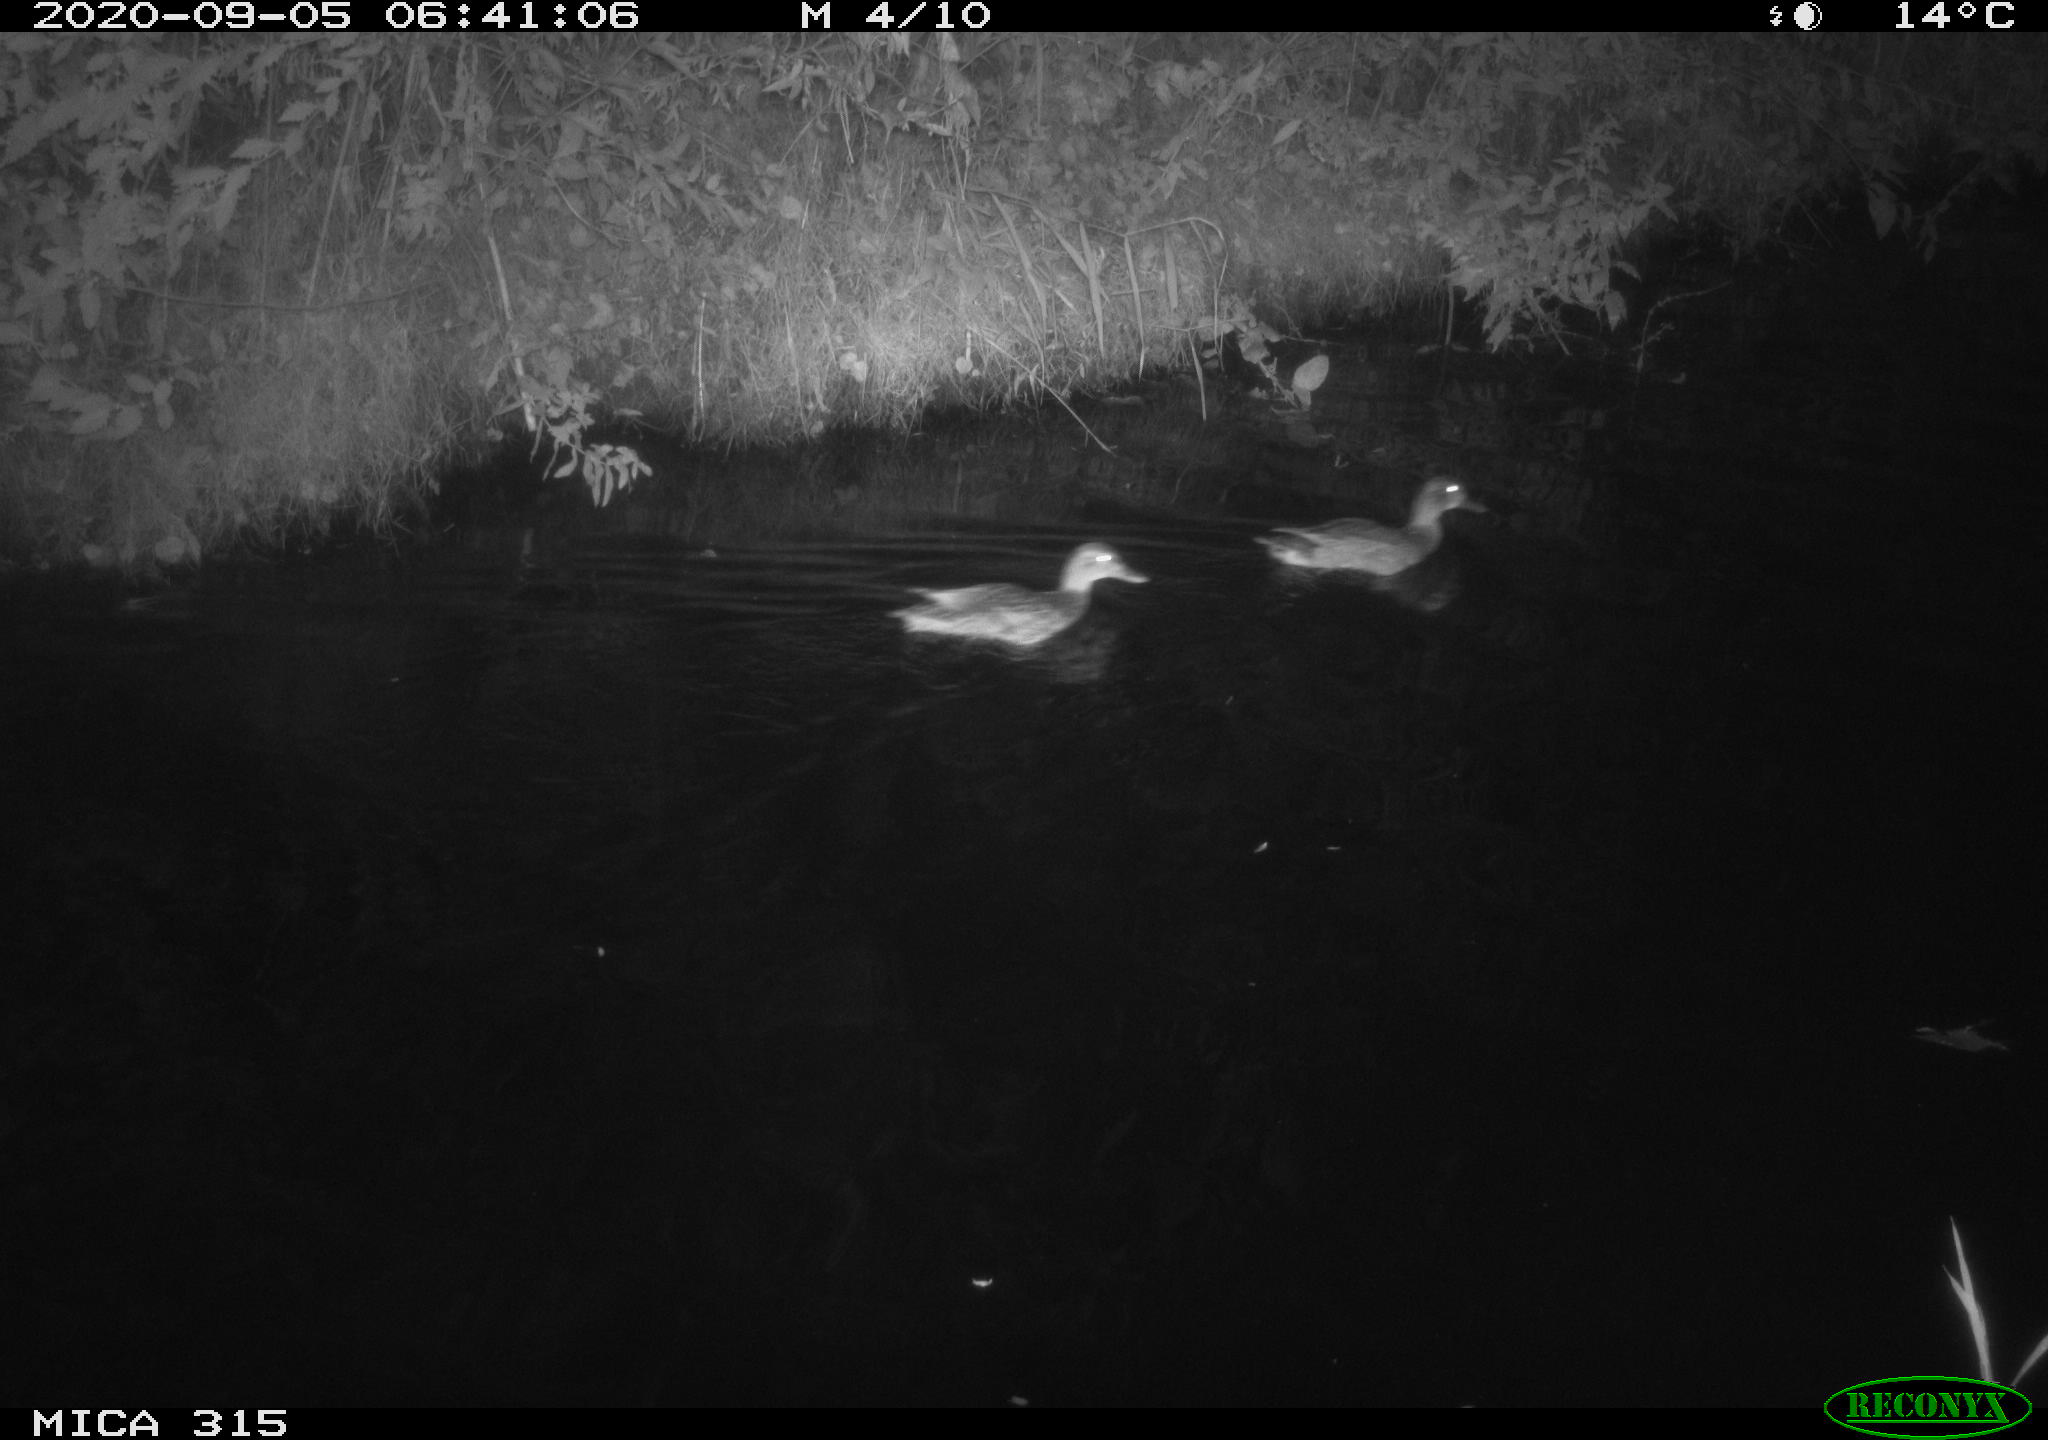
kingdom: Animalia
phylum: Chordata
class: Aves
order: Anseriformes
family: Anatidae
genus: Anas
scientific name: Anas platyrhynchos
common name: Mallard
